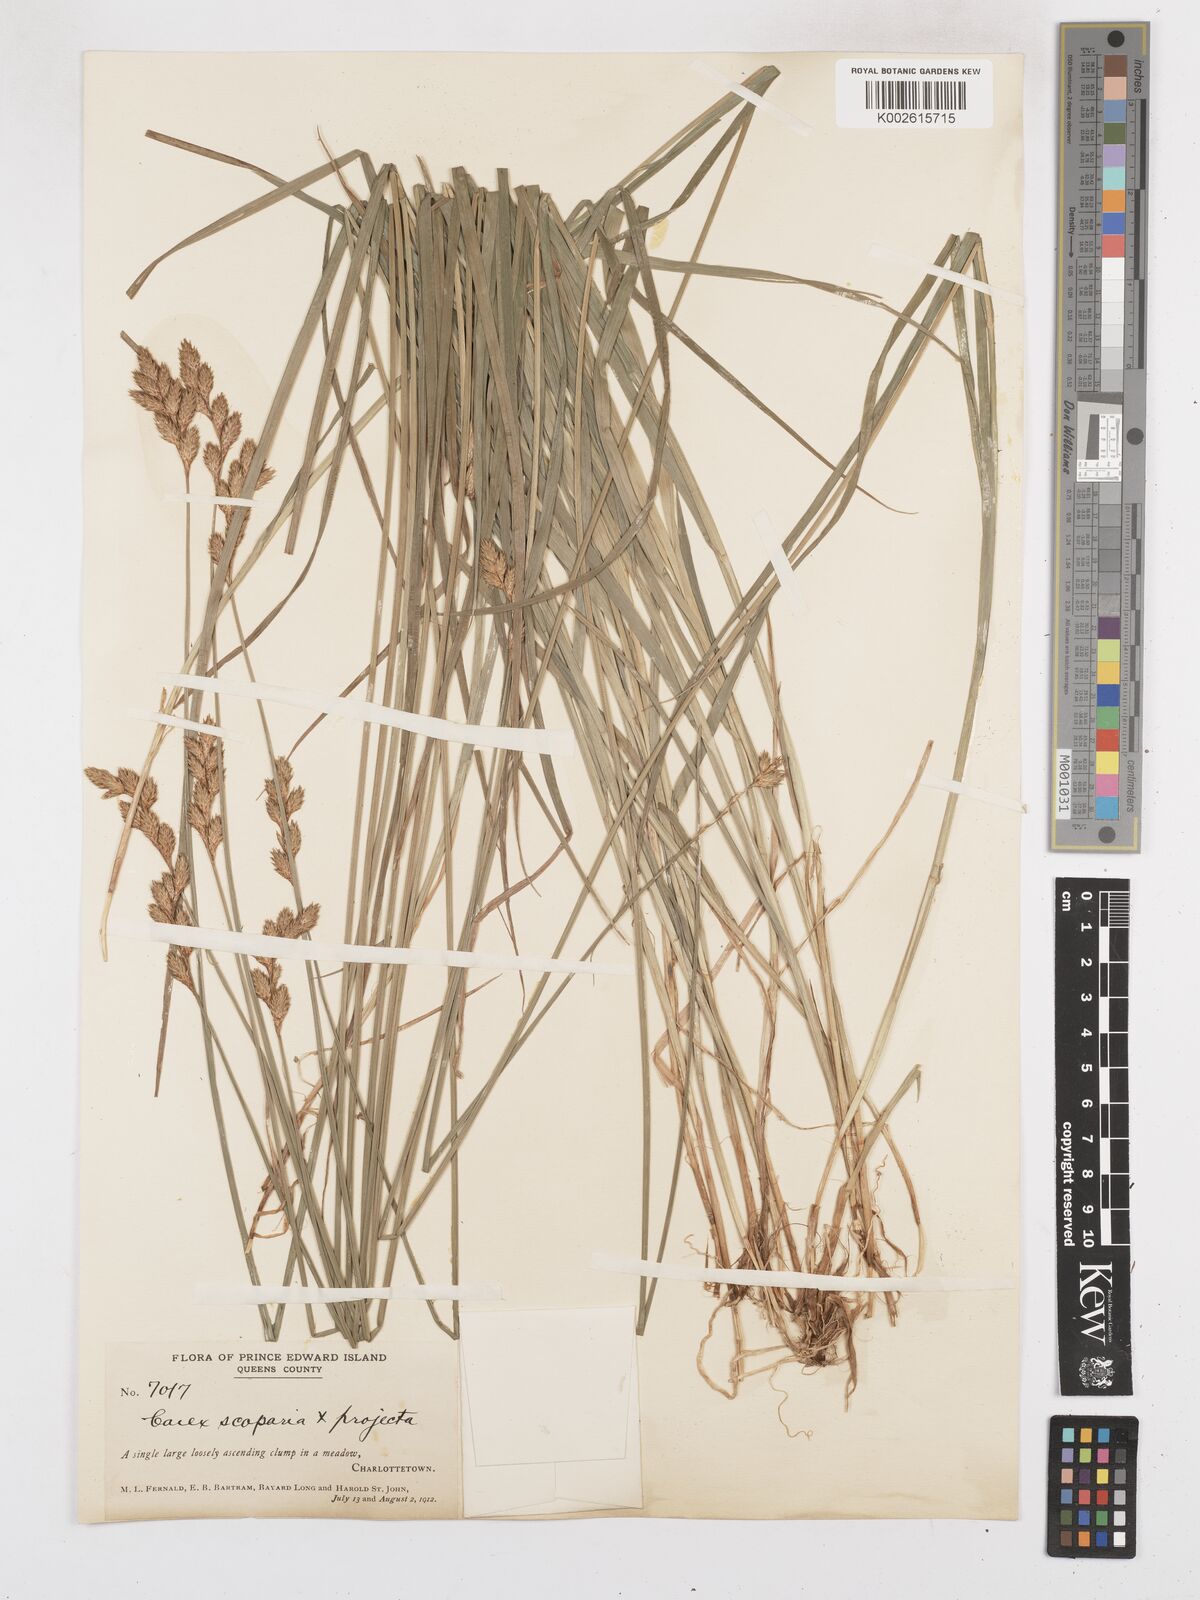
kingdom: Plantae
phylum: Tracheophyta
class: Liliopsida
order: Poales
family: Cyperaceae
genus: Carex
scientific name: Carex leporina
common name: Oval sedge
